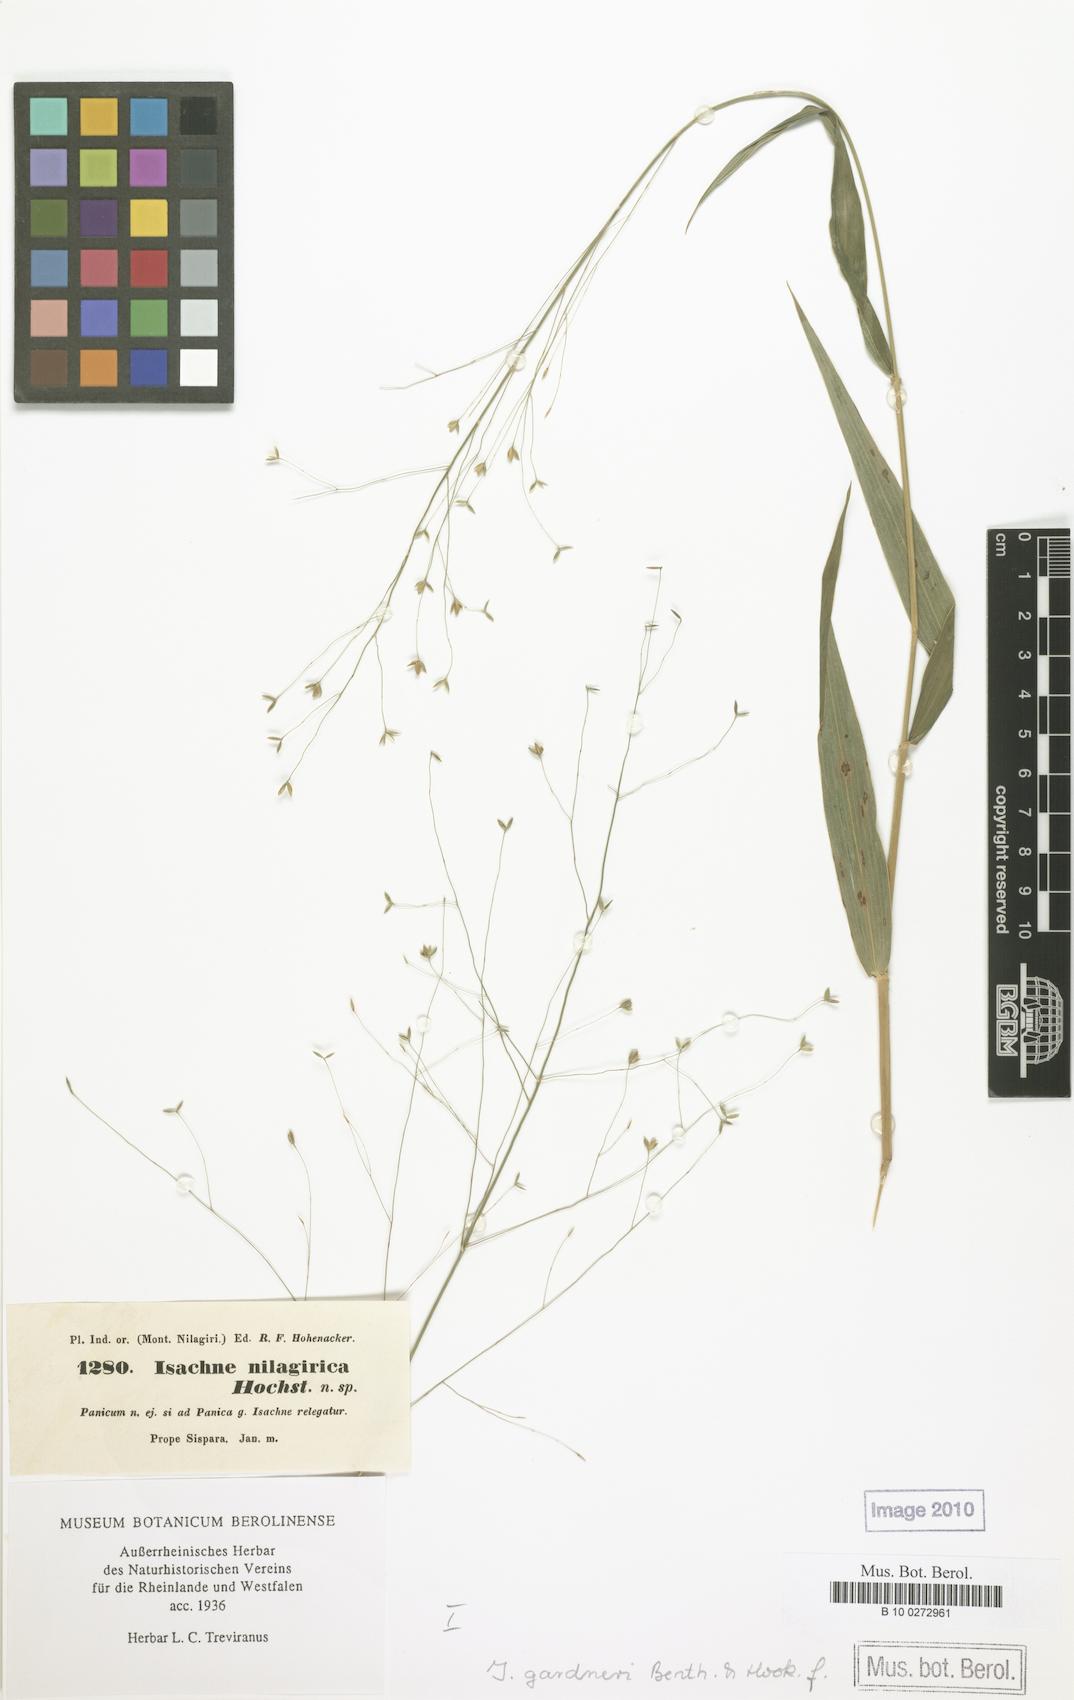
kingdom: Plantae
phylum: Tracheophyta
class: Liliopsida
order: Poales
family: Poaceae
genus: Isachne
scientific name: Isachne walkeri
